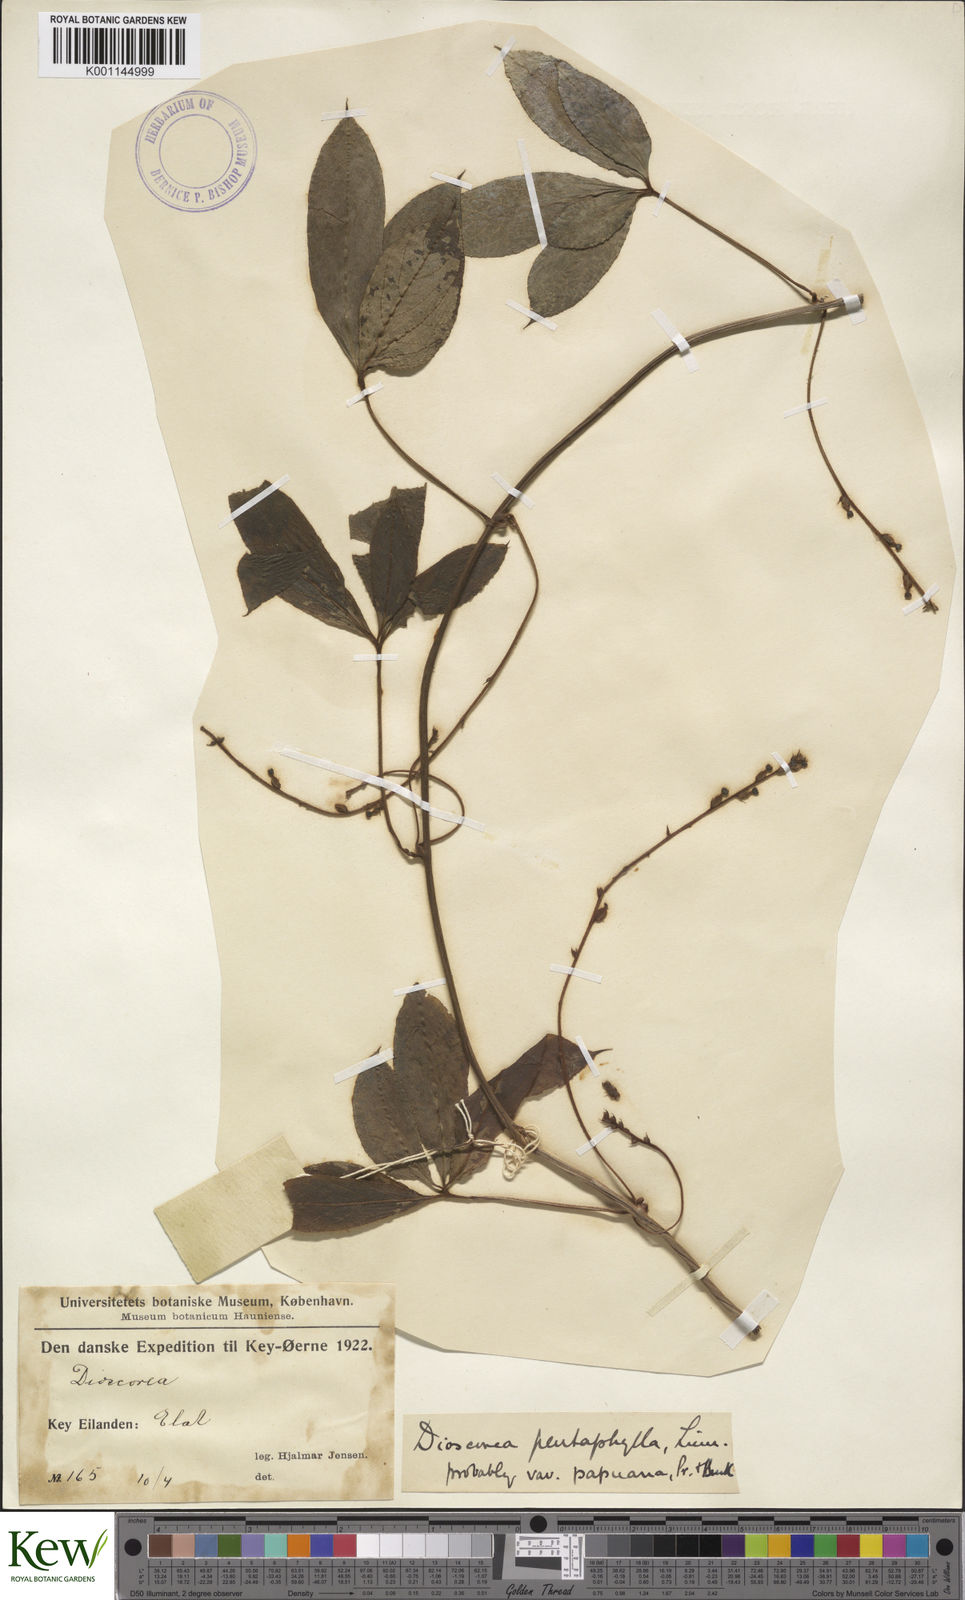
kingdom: Plantae
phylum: Tracheophyta
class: Liliopsida
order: Dioscoreales
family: Dioscoreaceae
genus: Dioscorea
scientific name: Dioscorea pentaphylla
